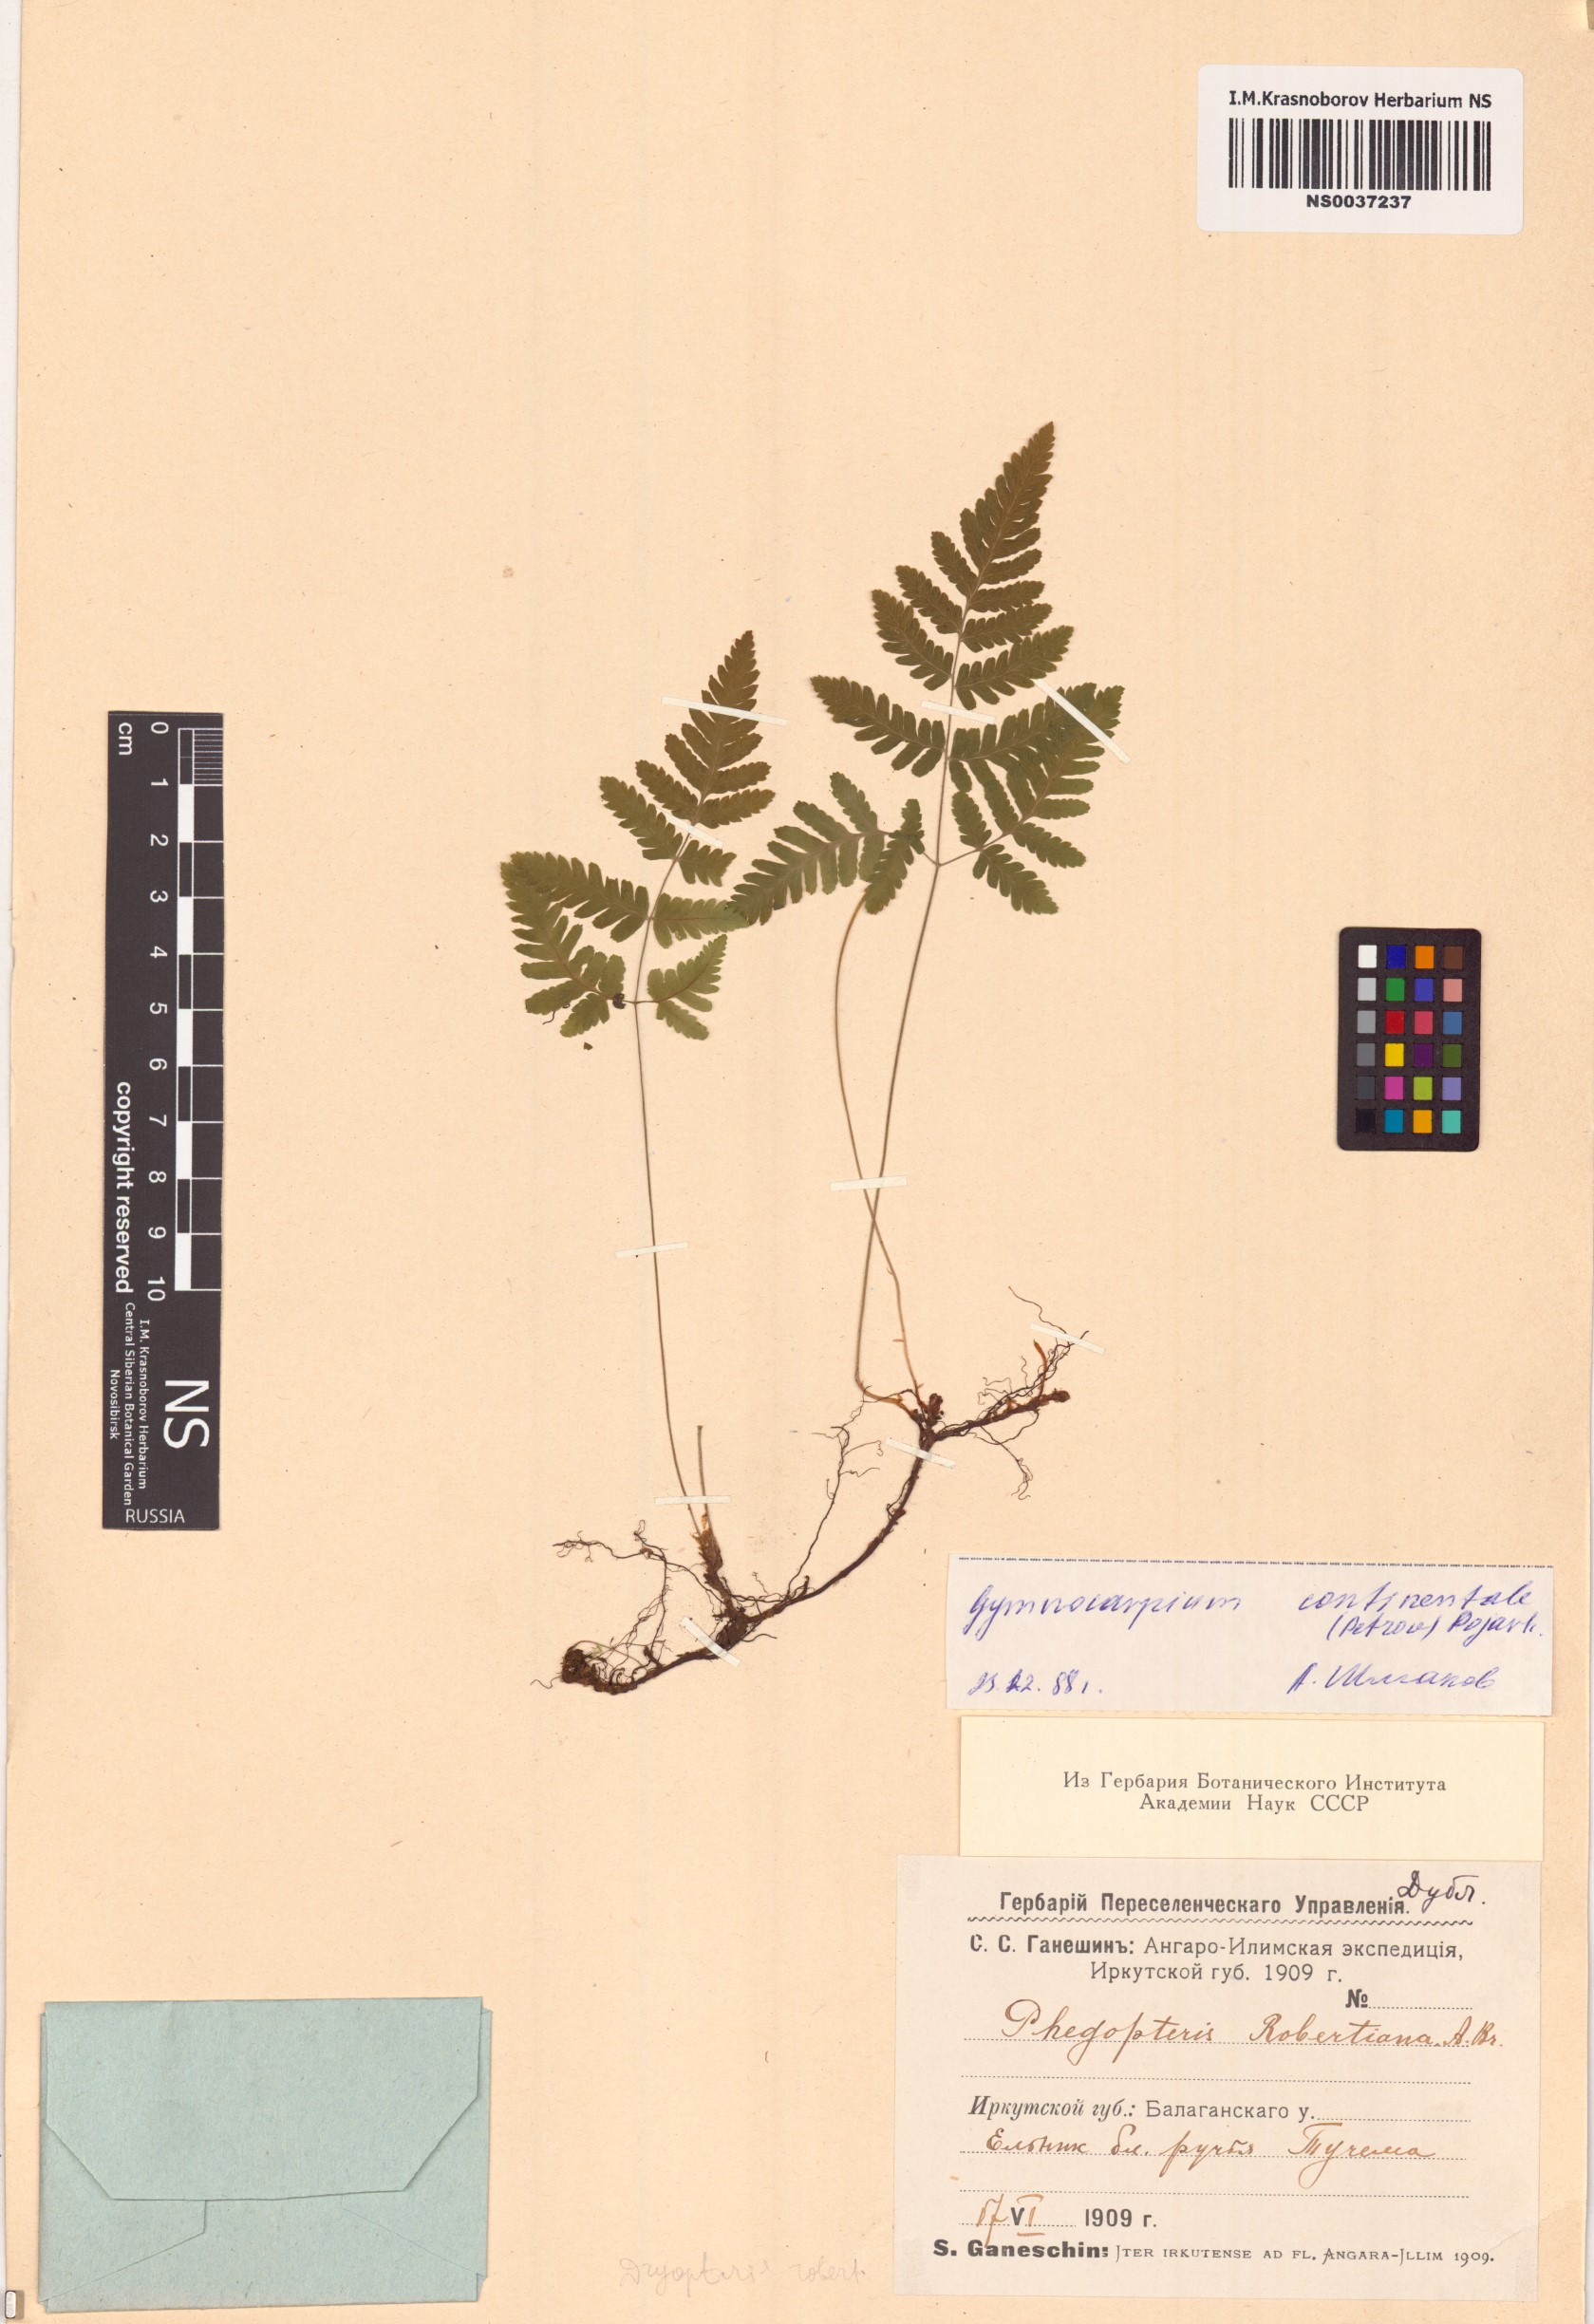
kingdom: Plantae
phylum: Tracheophyta
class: Polypodiopsida
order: Polypodiales
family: Cystopteridaceae
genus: Gymnocarpium
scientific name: Gymnocarpium continentale
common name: Asian oak fern
